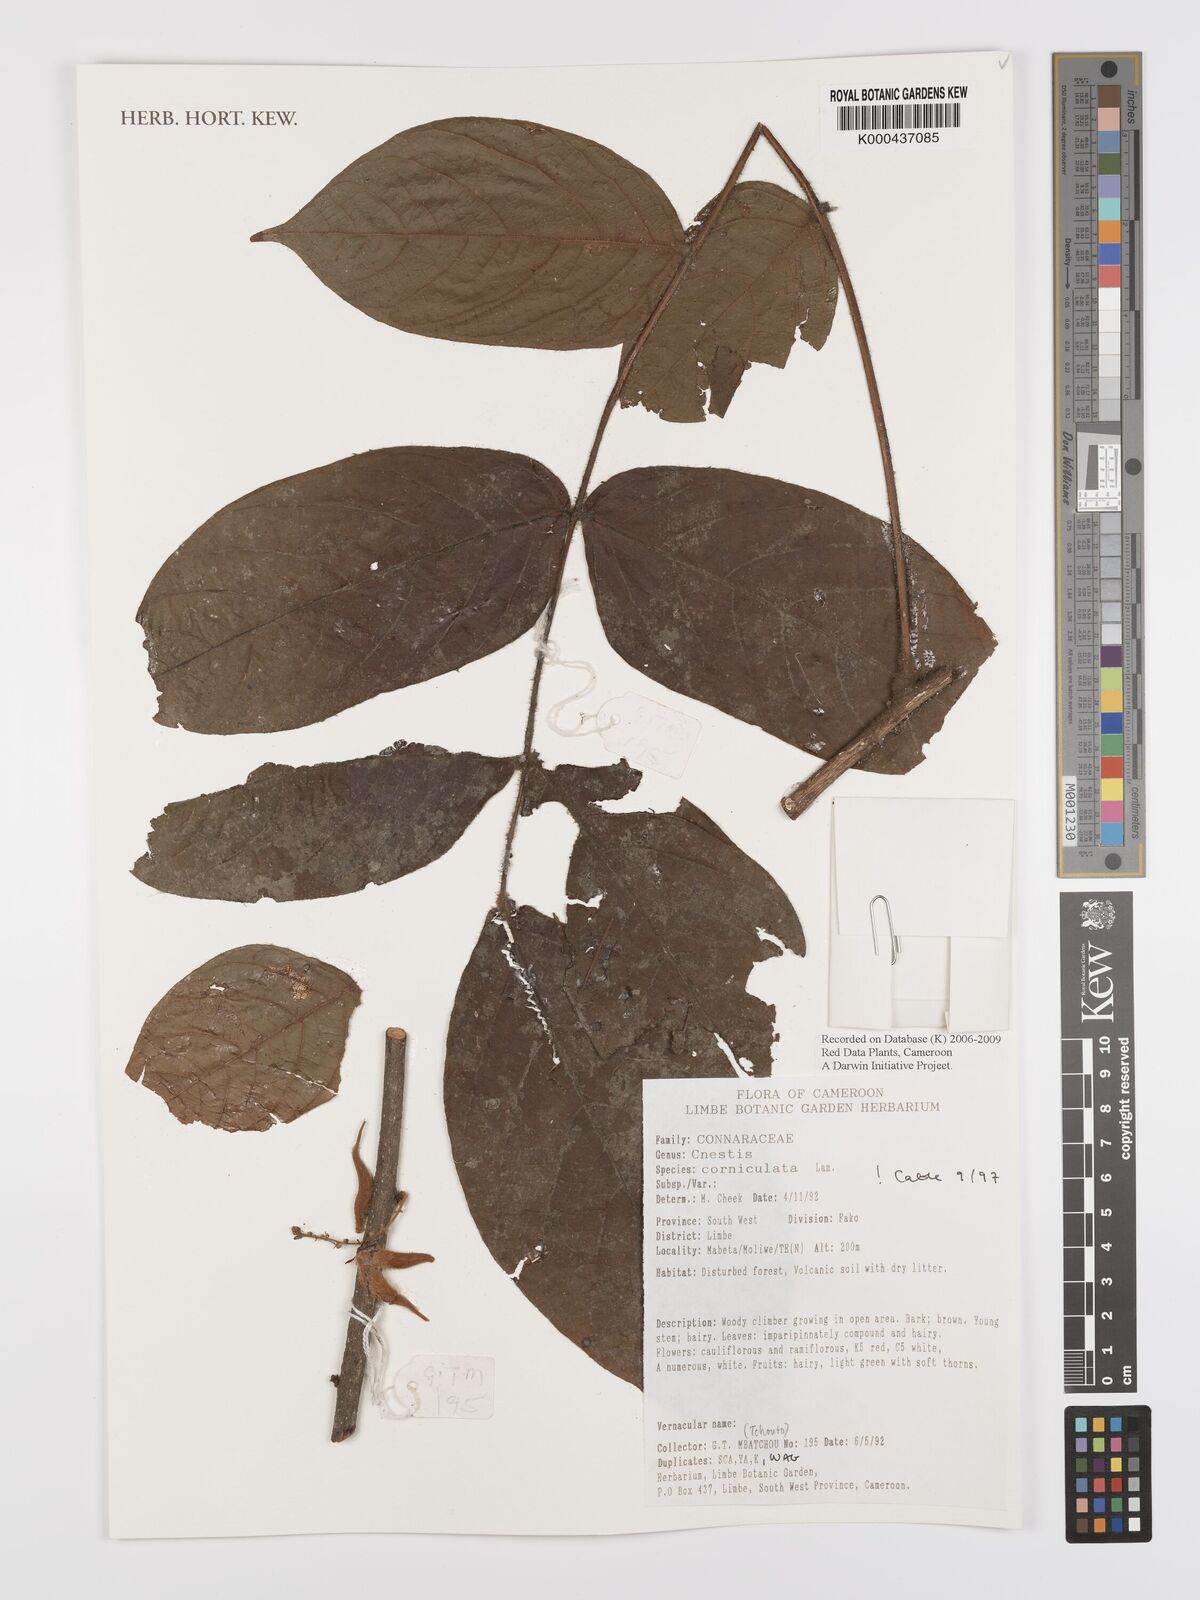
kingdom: Plantae
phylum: Tracheophyta
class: Magnoliopsida
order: Oxalidales
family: Connaraceae
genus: Cnestis
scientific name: Cnestis corniculata
